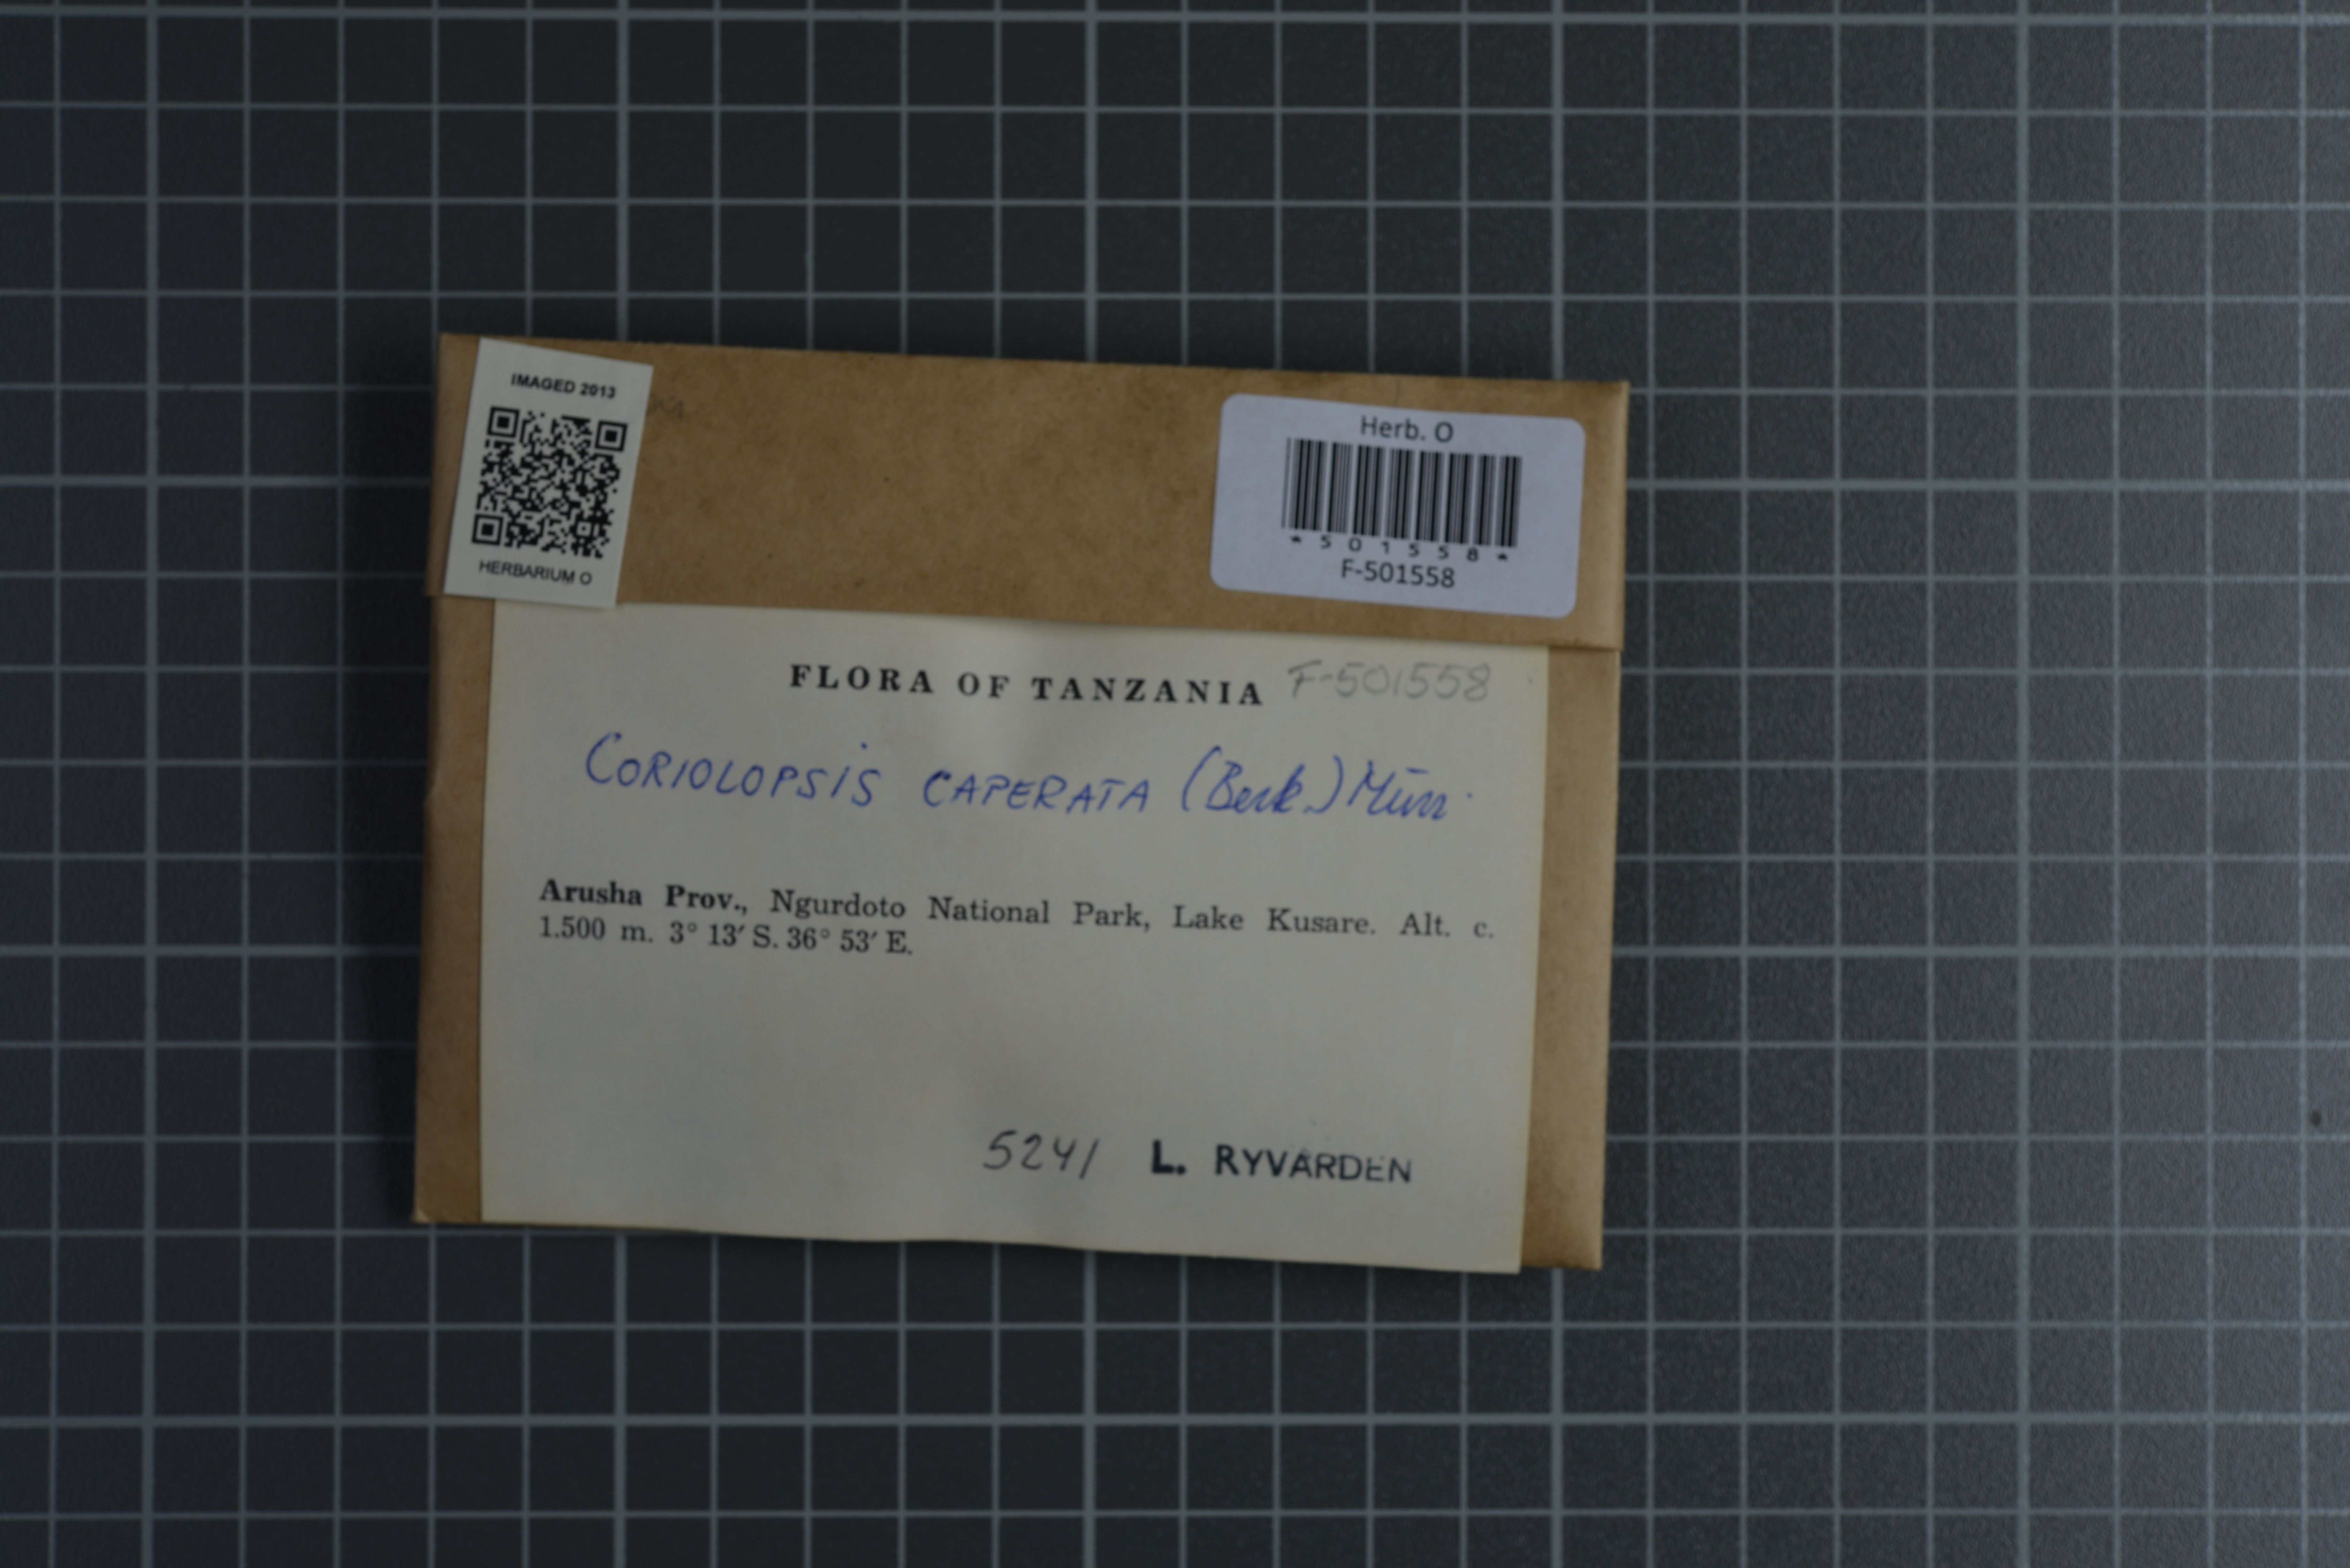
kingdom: Fungi
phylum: Basidiomycota
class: Agaricomycetes
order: Polyporales
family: Cerrenaceae
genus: Cerrena
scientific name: Cerrena caperata
